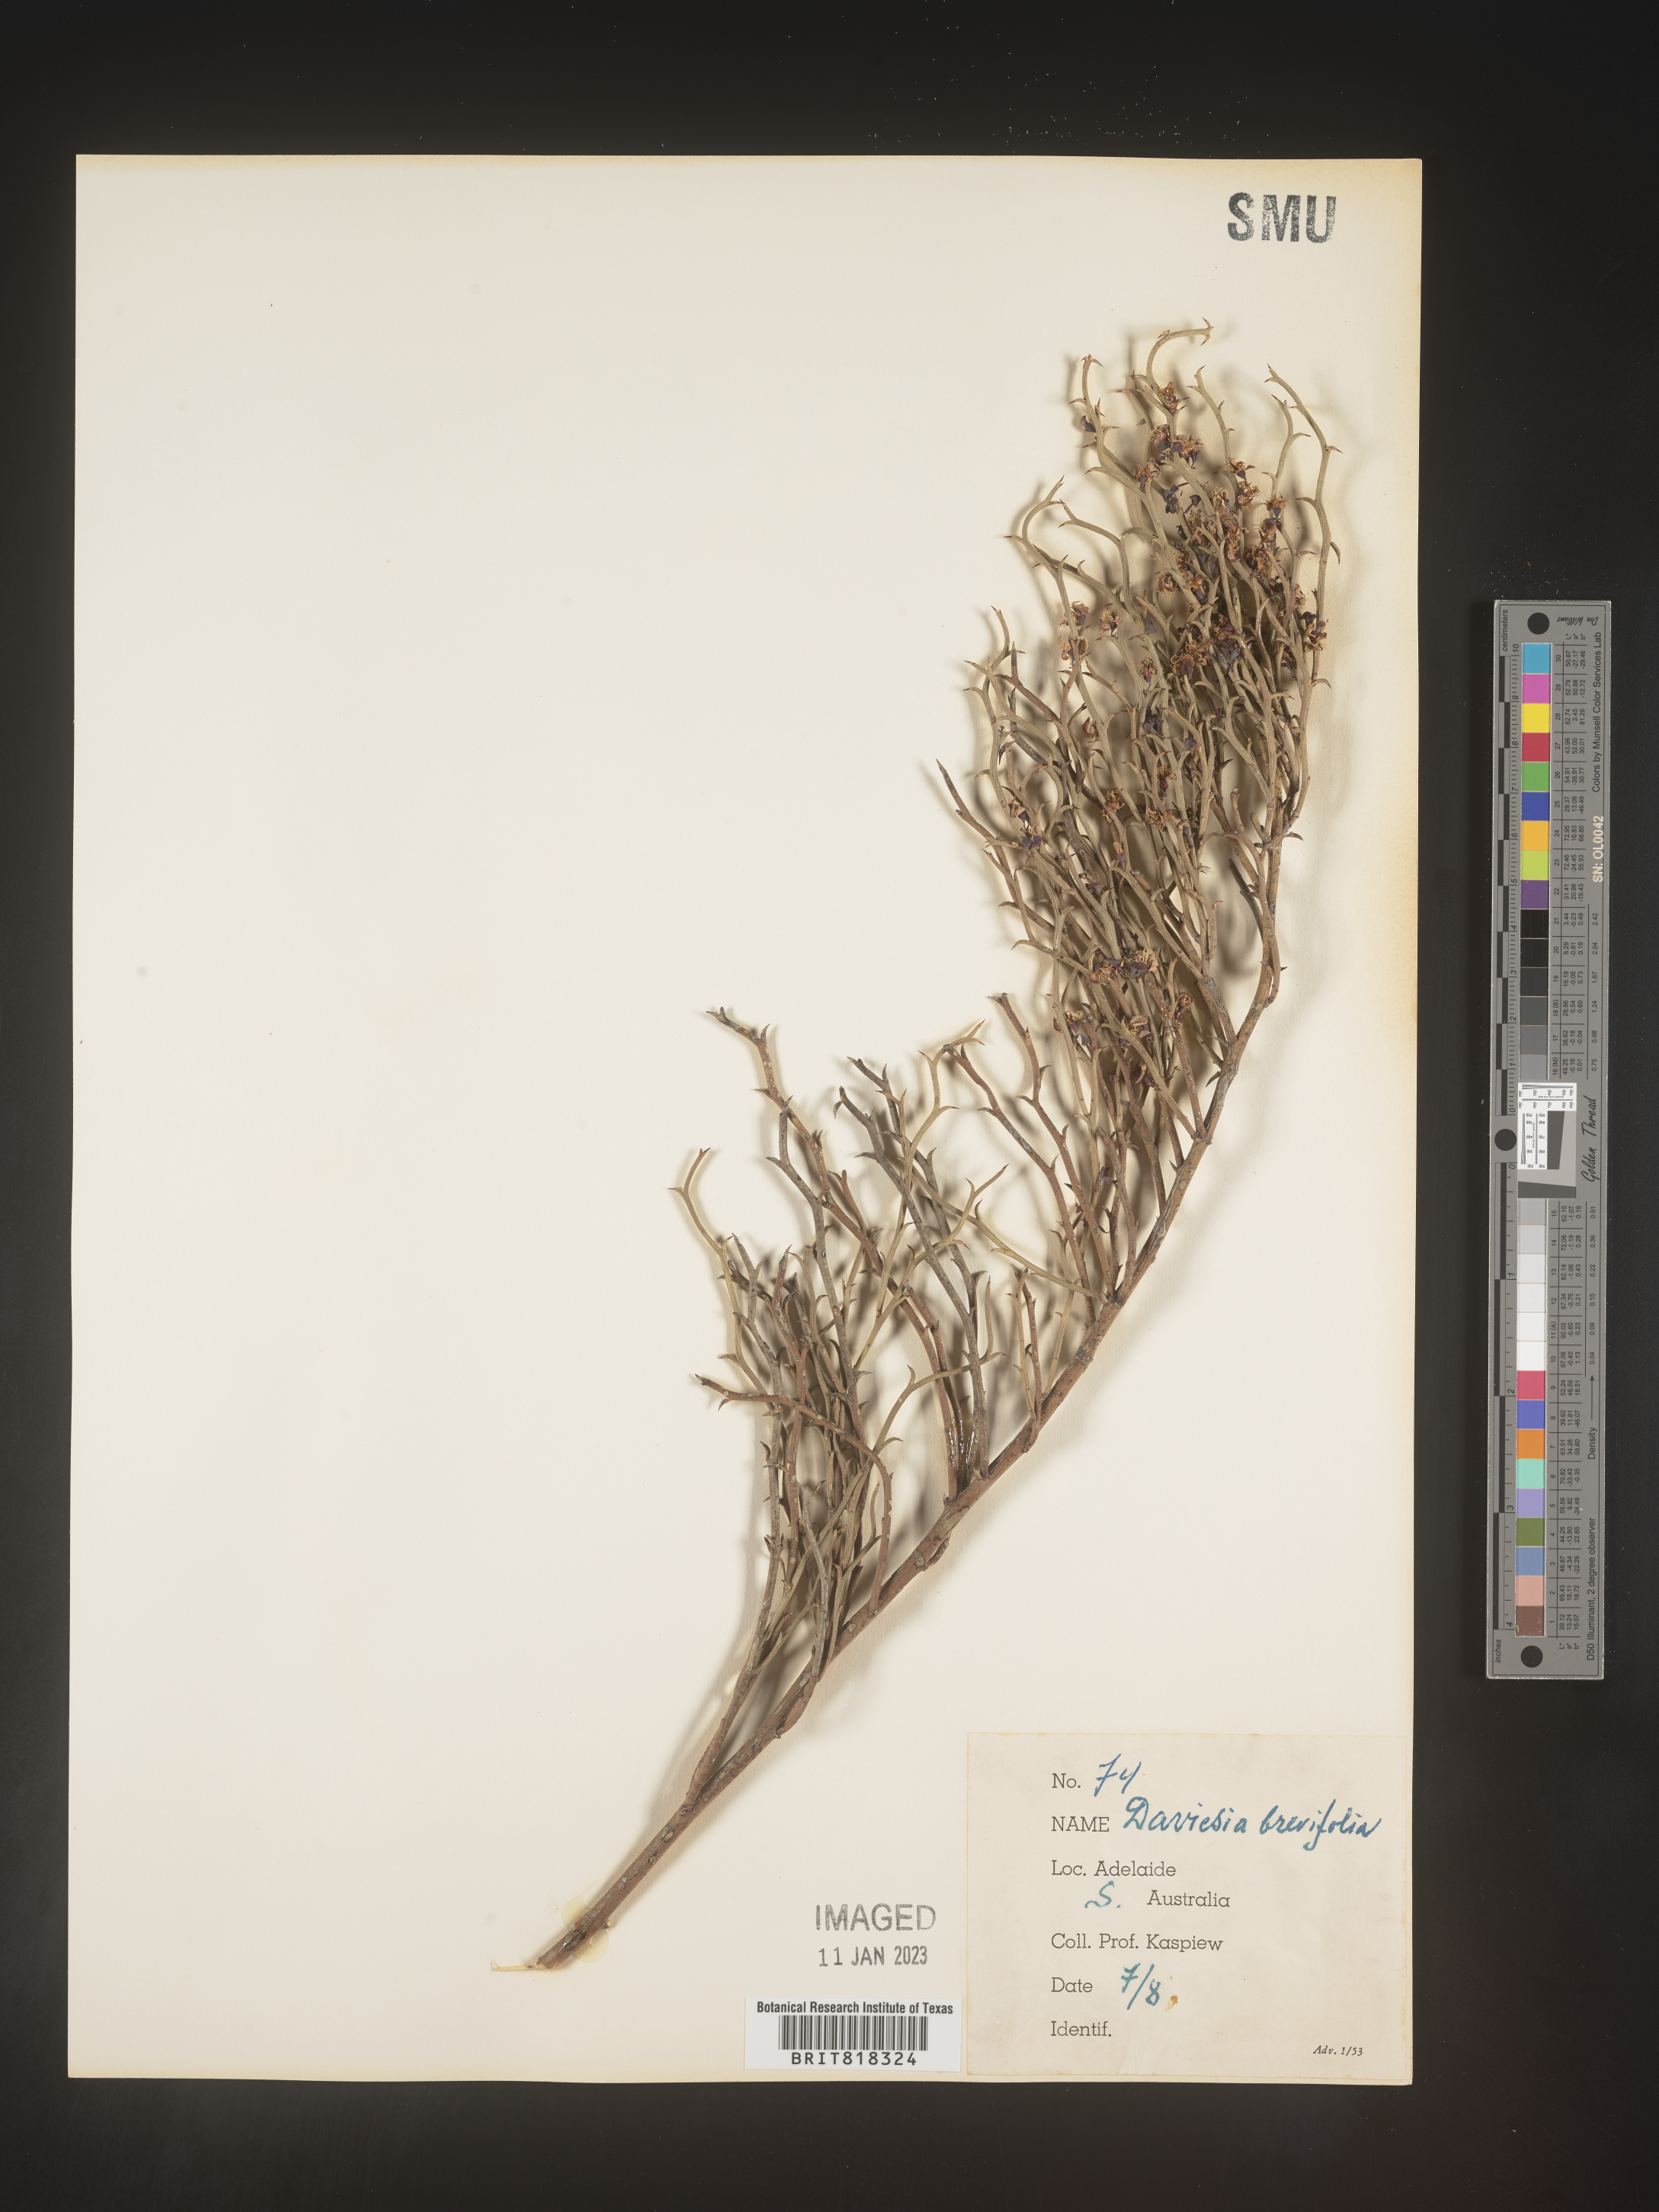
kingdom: Plantae
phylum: Tracheophyta
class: Magnoliopsida
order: Fabales
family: Fabaceae
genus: Daviesia
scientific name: Daviesia
